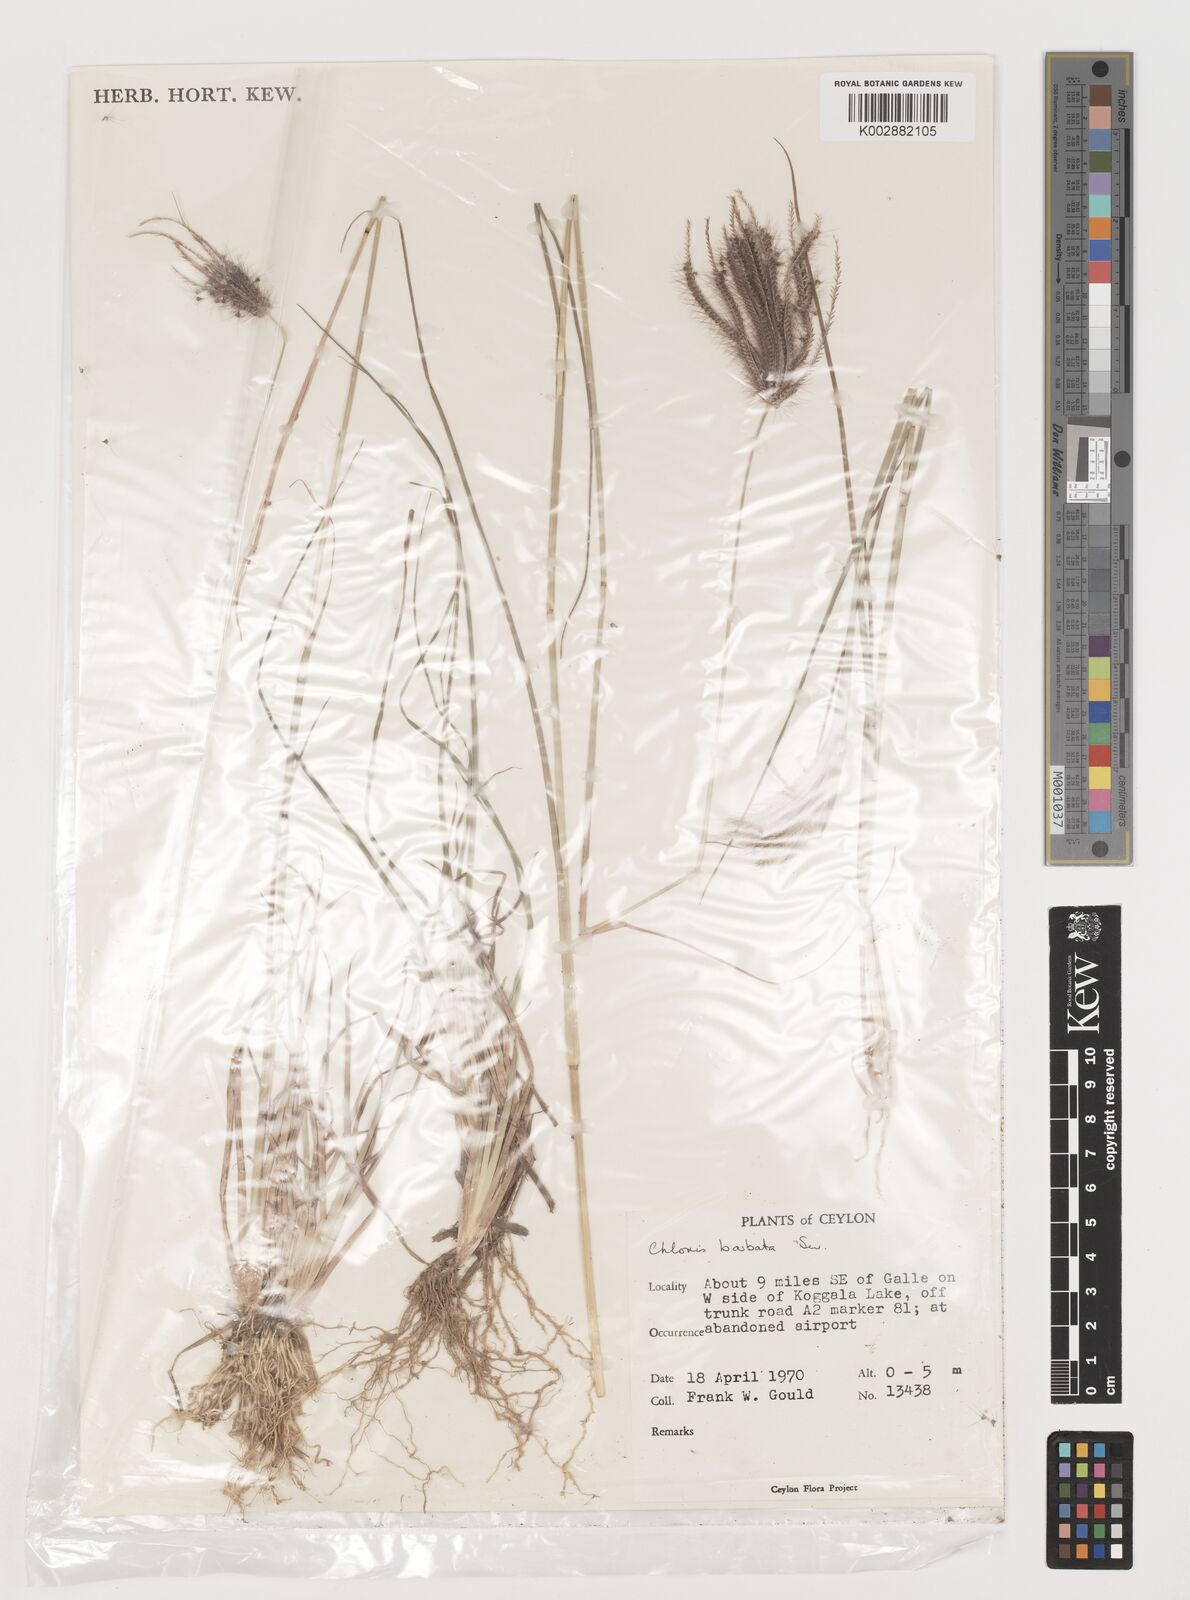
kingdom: Plantae
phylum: Tracheophyta
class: Liliopsida
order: Poales
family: Poaceae
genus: Chloris
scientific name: Chloris barbata
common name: Swollen fingergrass
